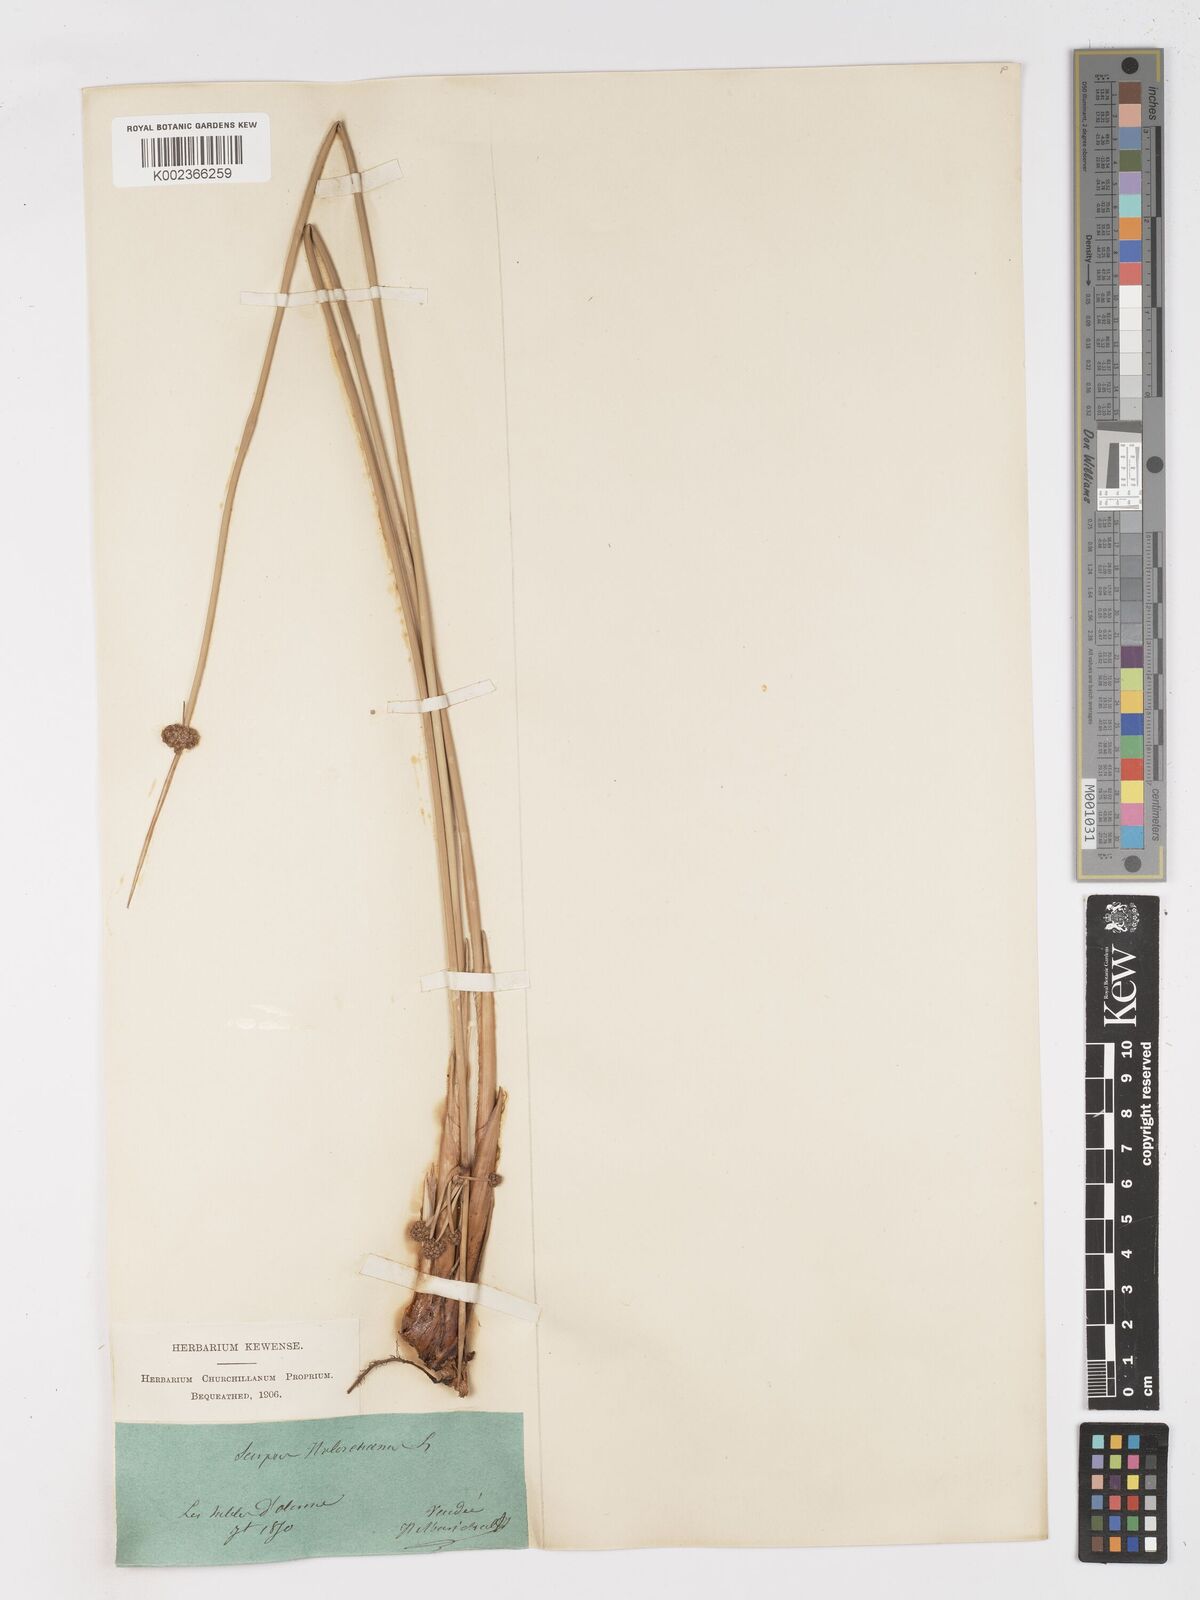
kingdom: Plantae
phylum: Tracheophyta
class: Liliopsida
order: Poales
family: Cyperaceae
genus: Scirpoides
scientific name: Scirpoides holoschoenus
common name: Round-headed club-rush
